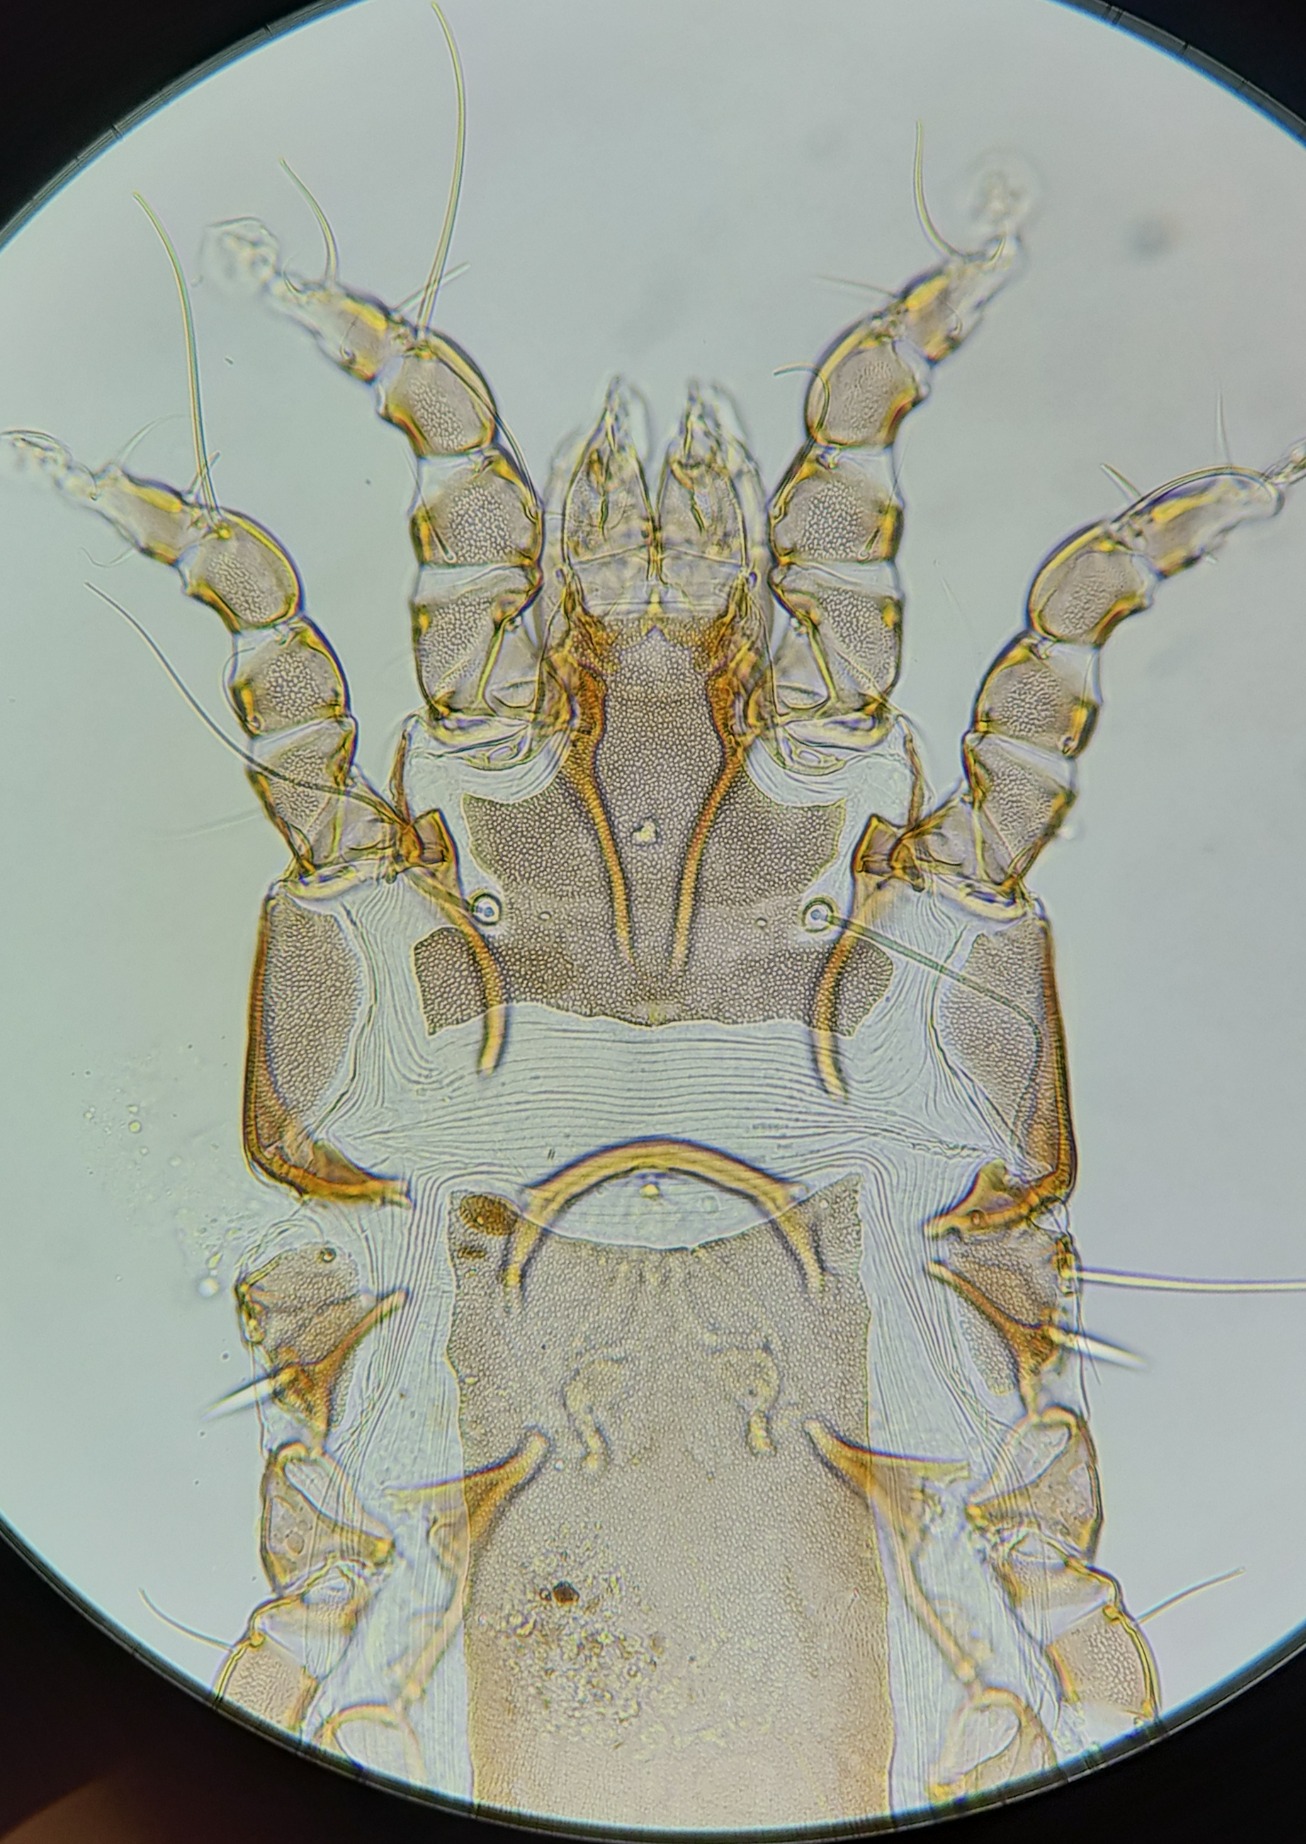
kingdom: Animalia
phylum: Arthropoda
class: Arachnida
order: Sarcoptiformes
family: Proctophyllodidae
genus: Proctophyllodes
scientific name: Proctophyllodes musicus
